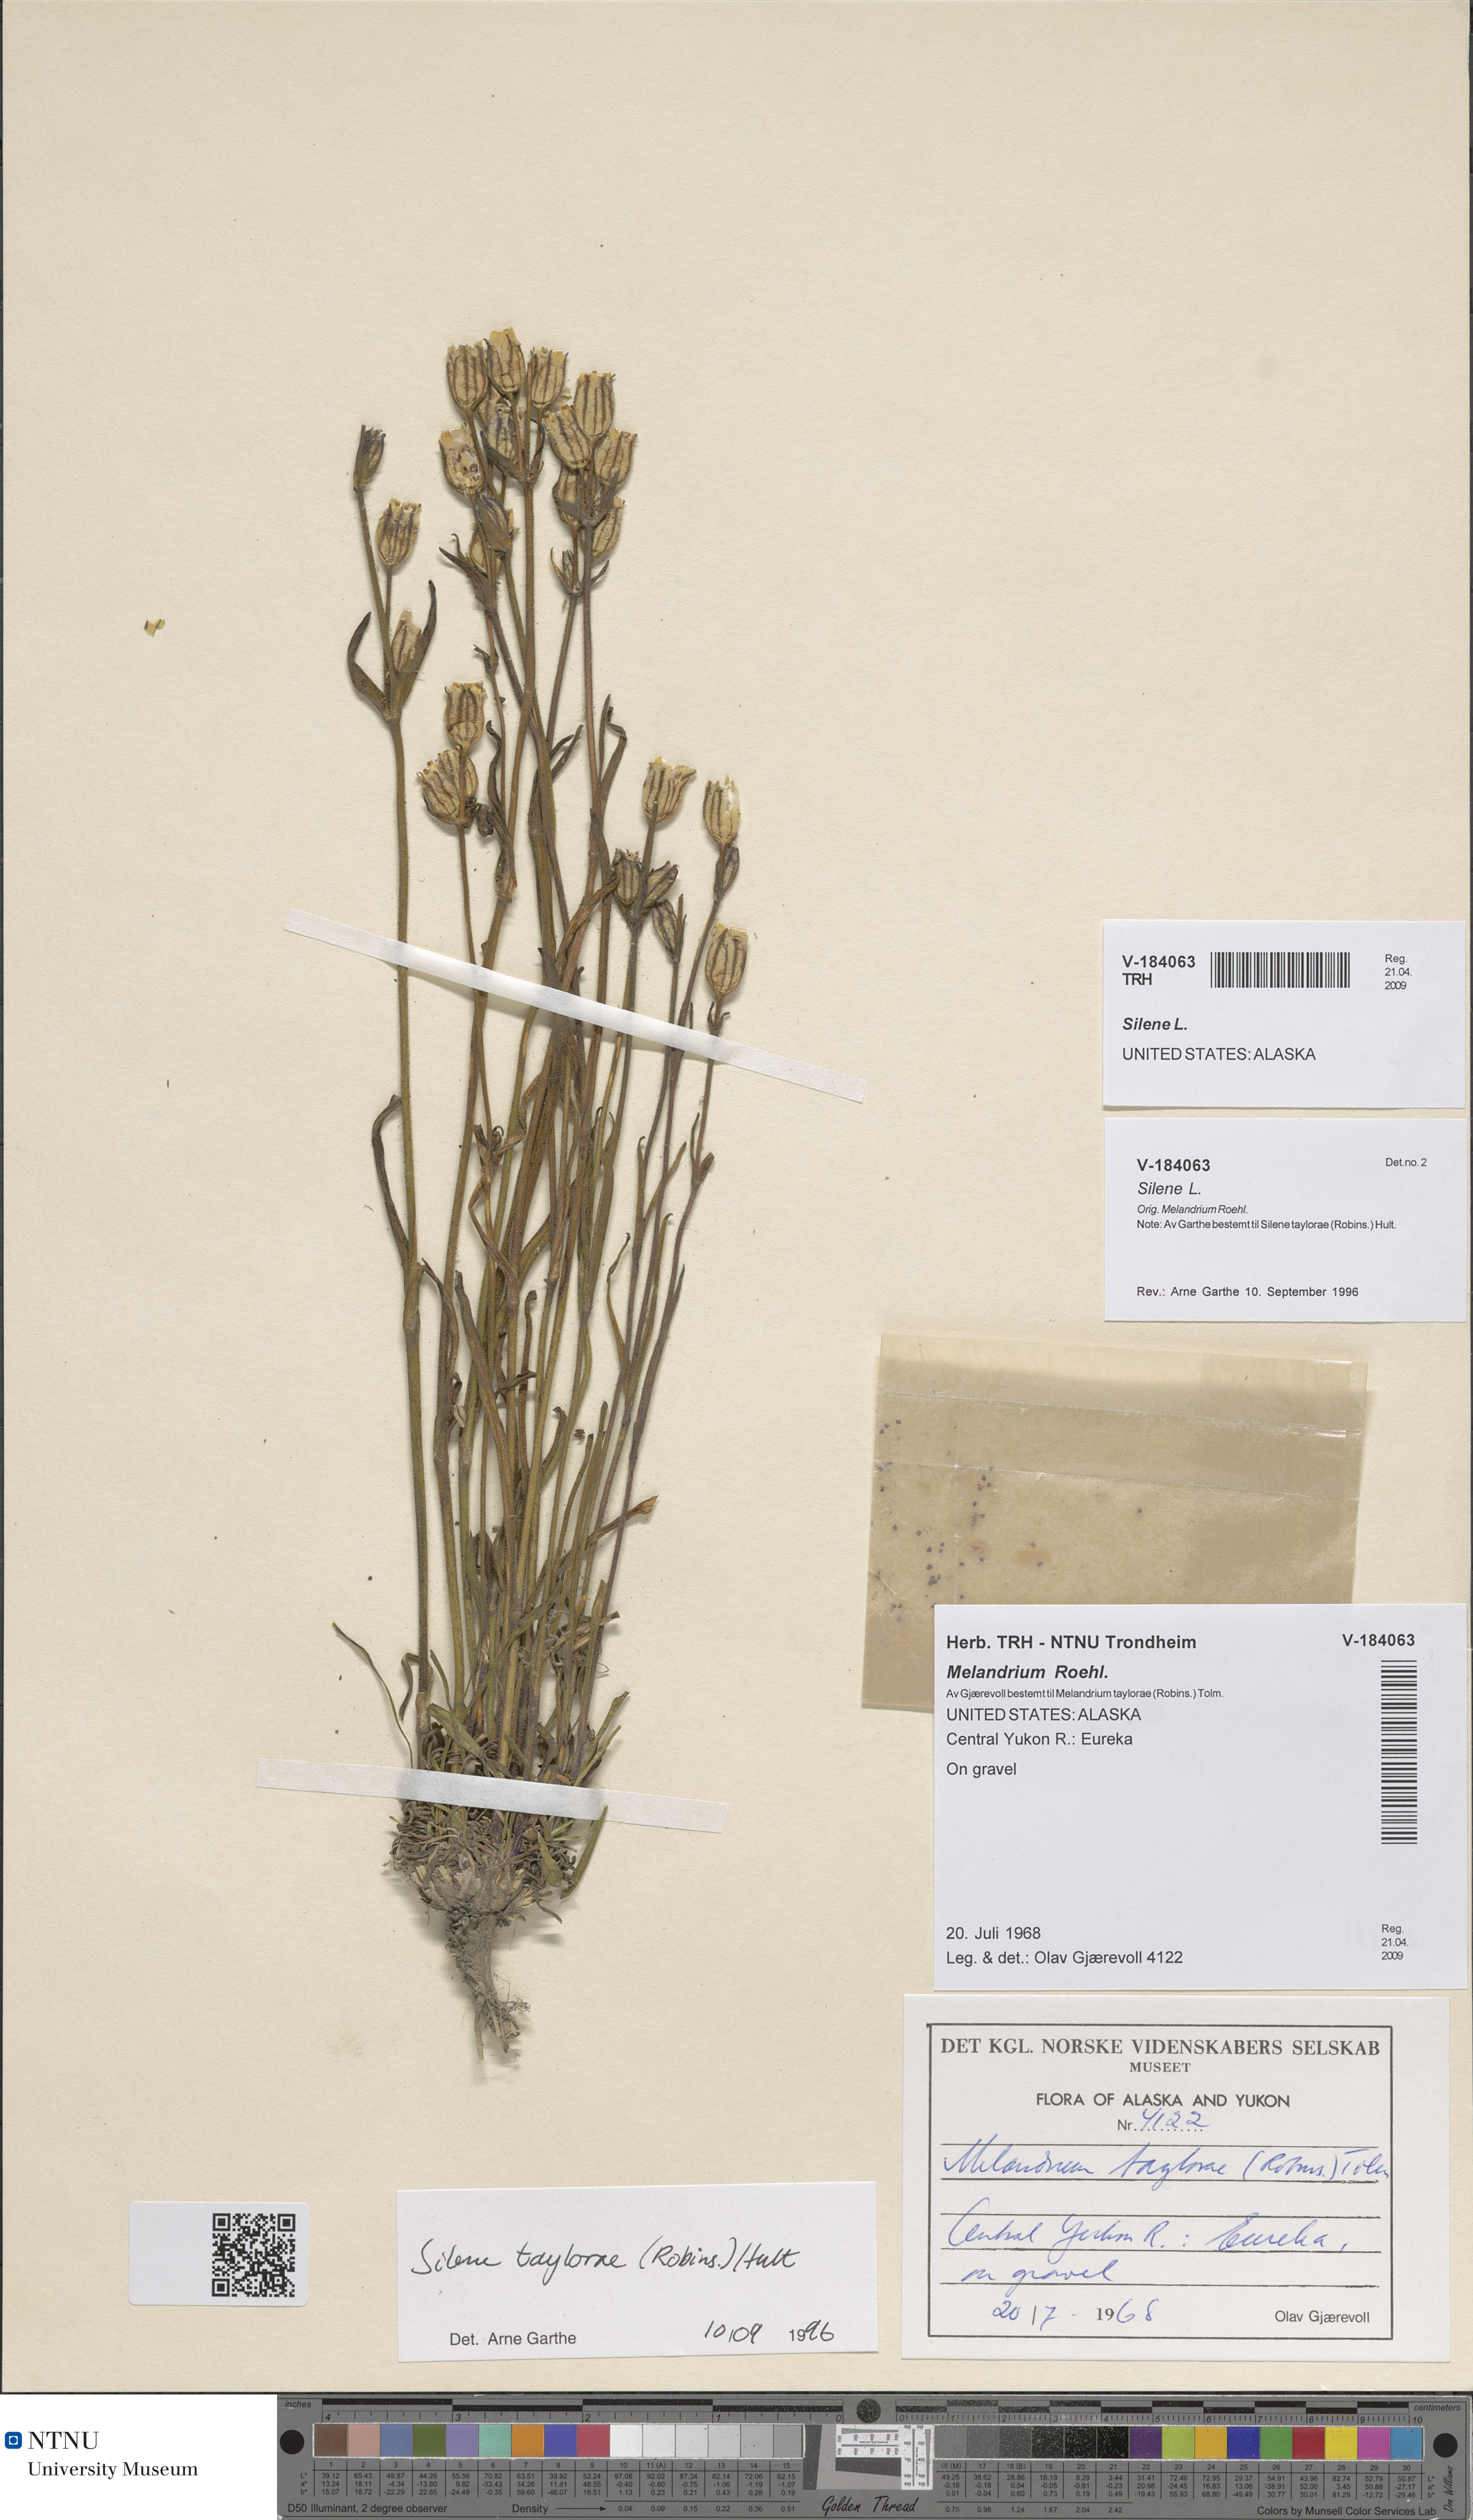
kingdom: Plantae
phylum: Tracheophyta
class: Magnoliopsida
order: Caryophyllales
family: Caryophyllaceae
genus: Silene
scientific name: Silene
